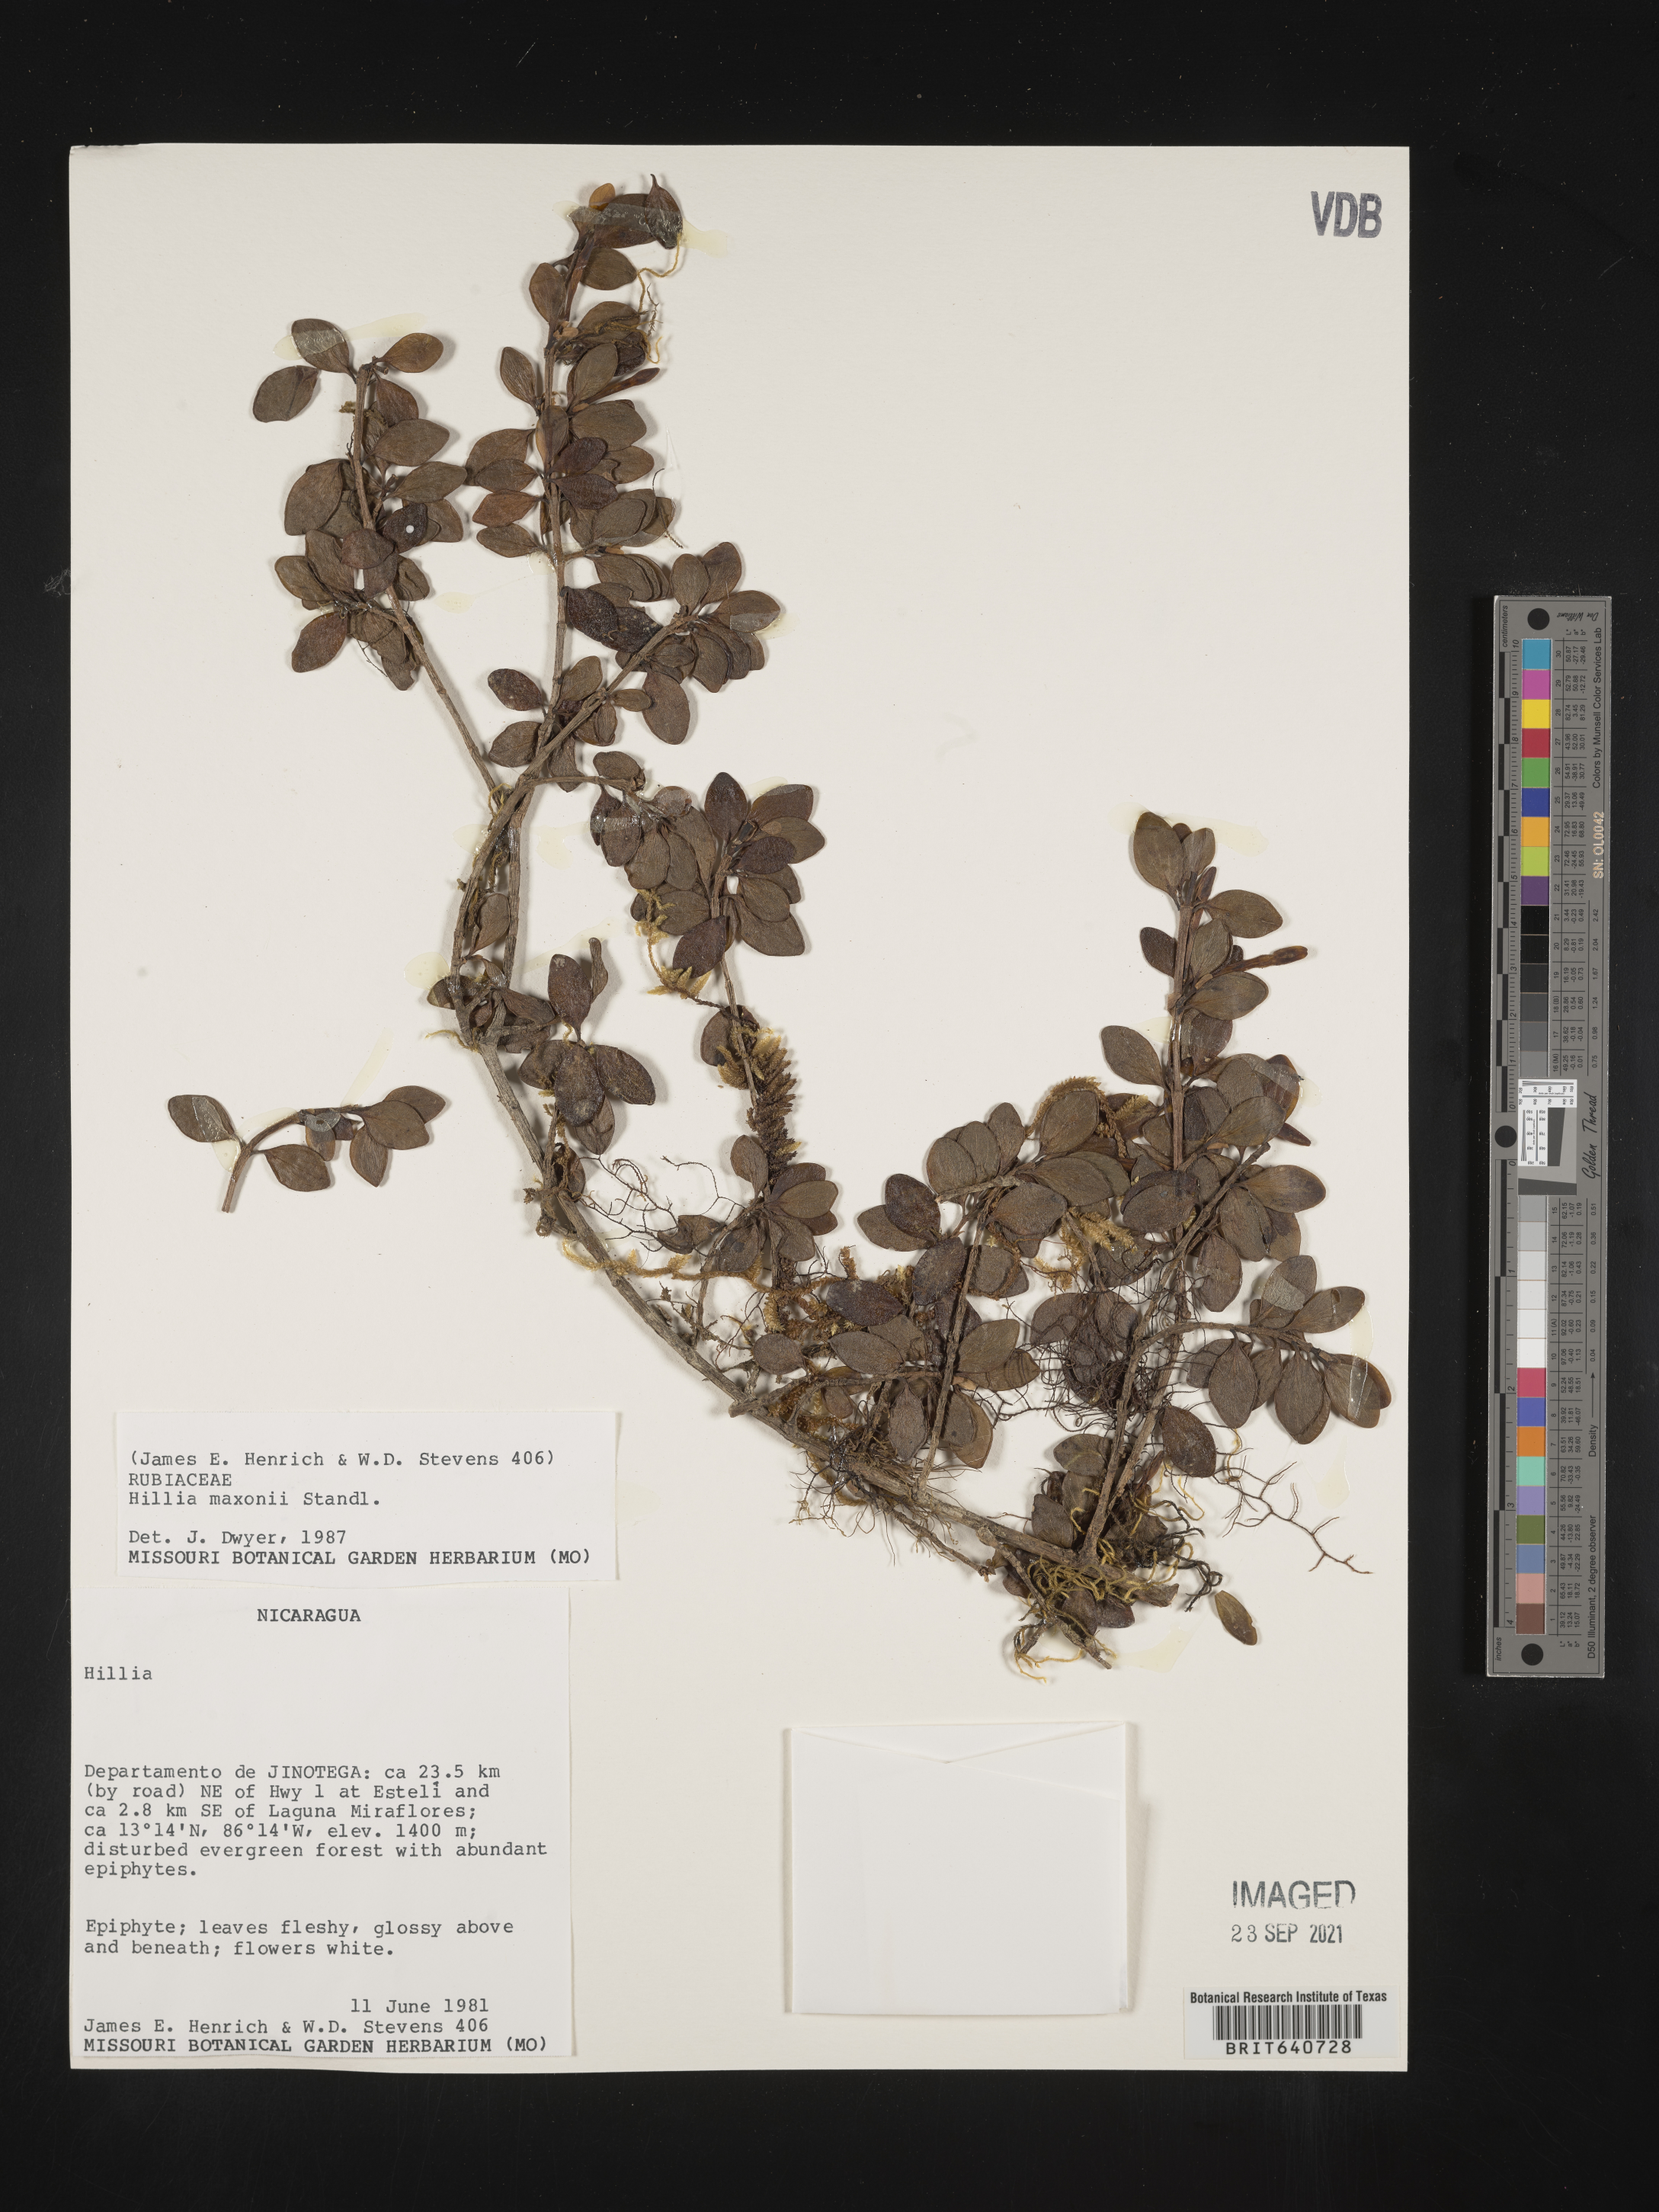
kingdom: Plantae
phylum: Tracheophyta
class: Magnoliopsida
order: Gentianales
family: Rubiaceae
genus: Hillia
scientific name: Hillia
